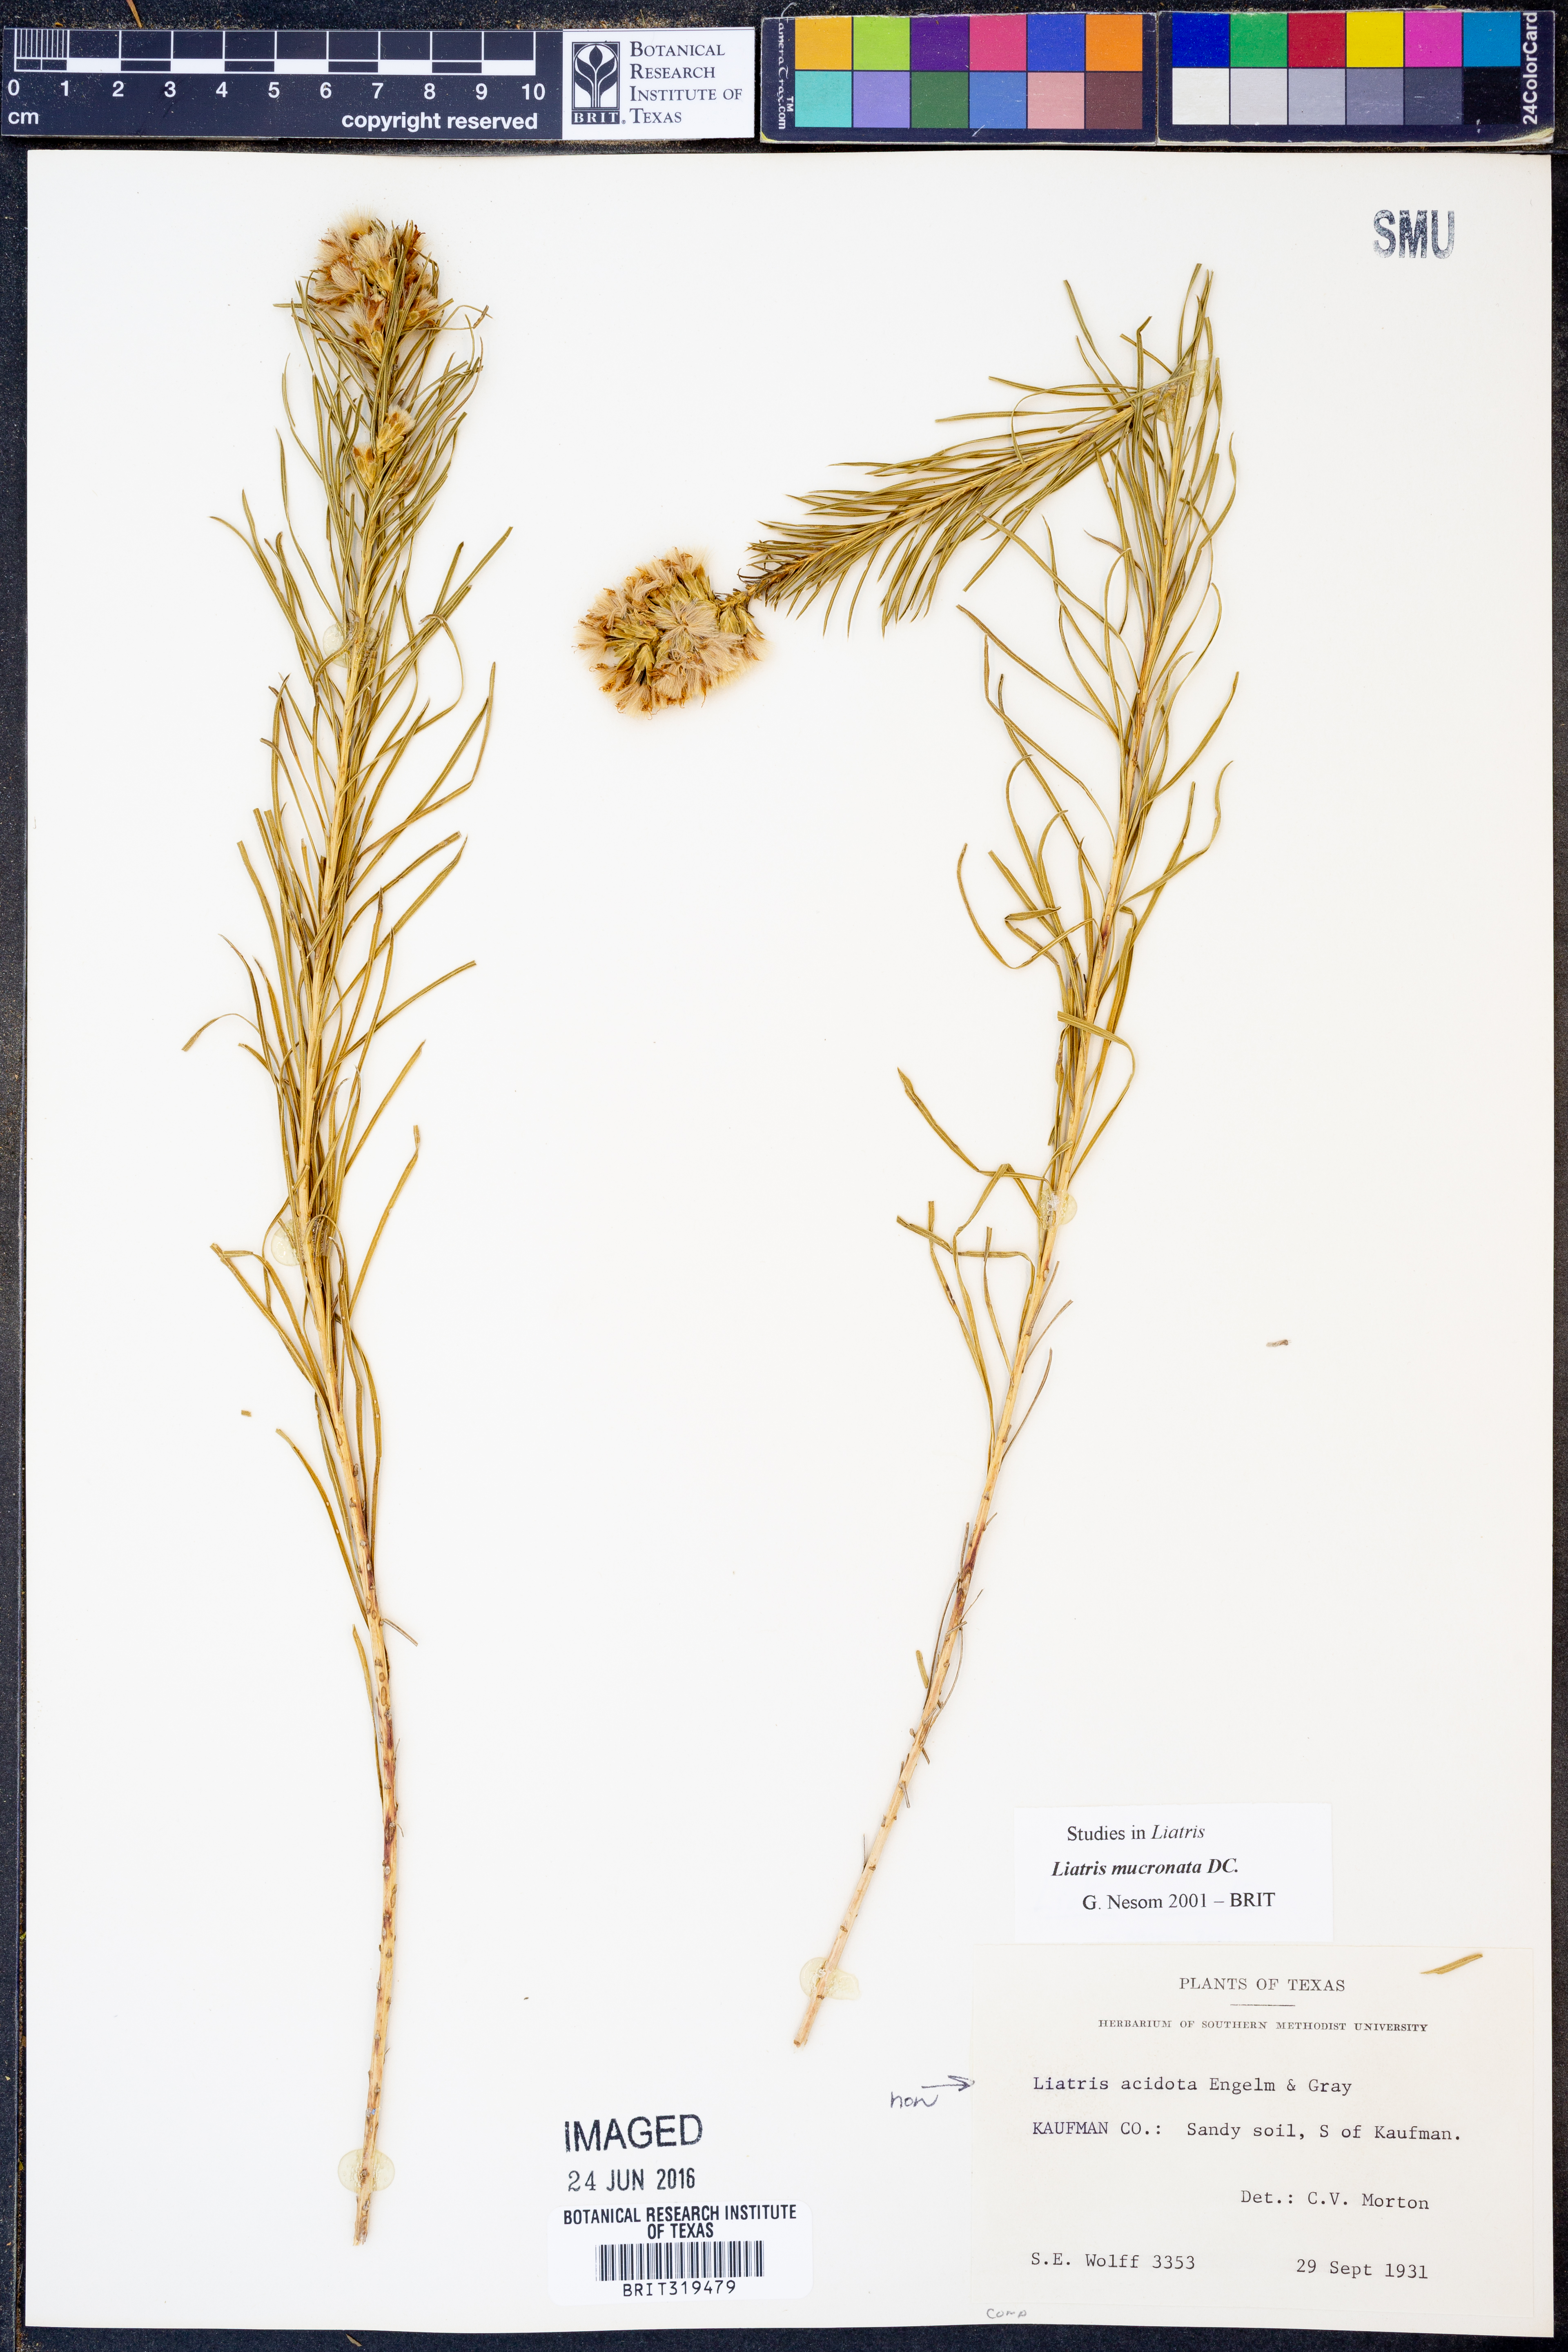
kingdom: Plantae
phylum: Tracheophyta
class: Magnoliopsida
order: Asterales
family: Asteraceae
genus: Liatris
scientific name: Liatris mucronata
